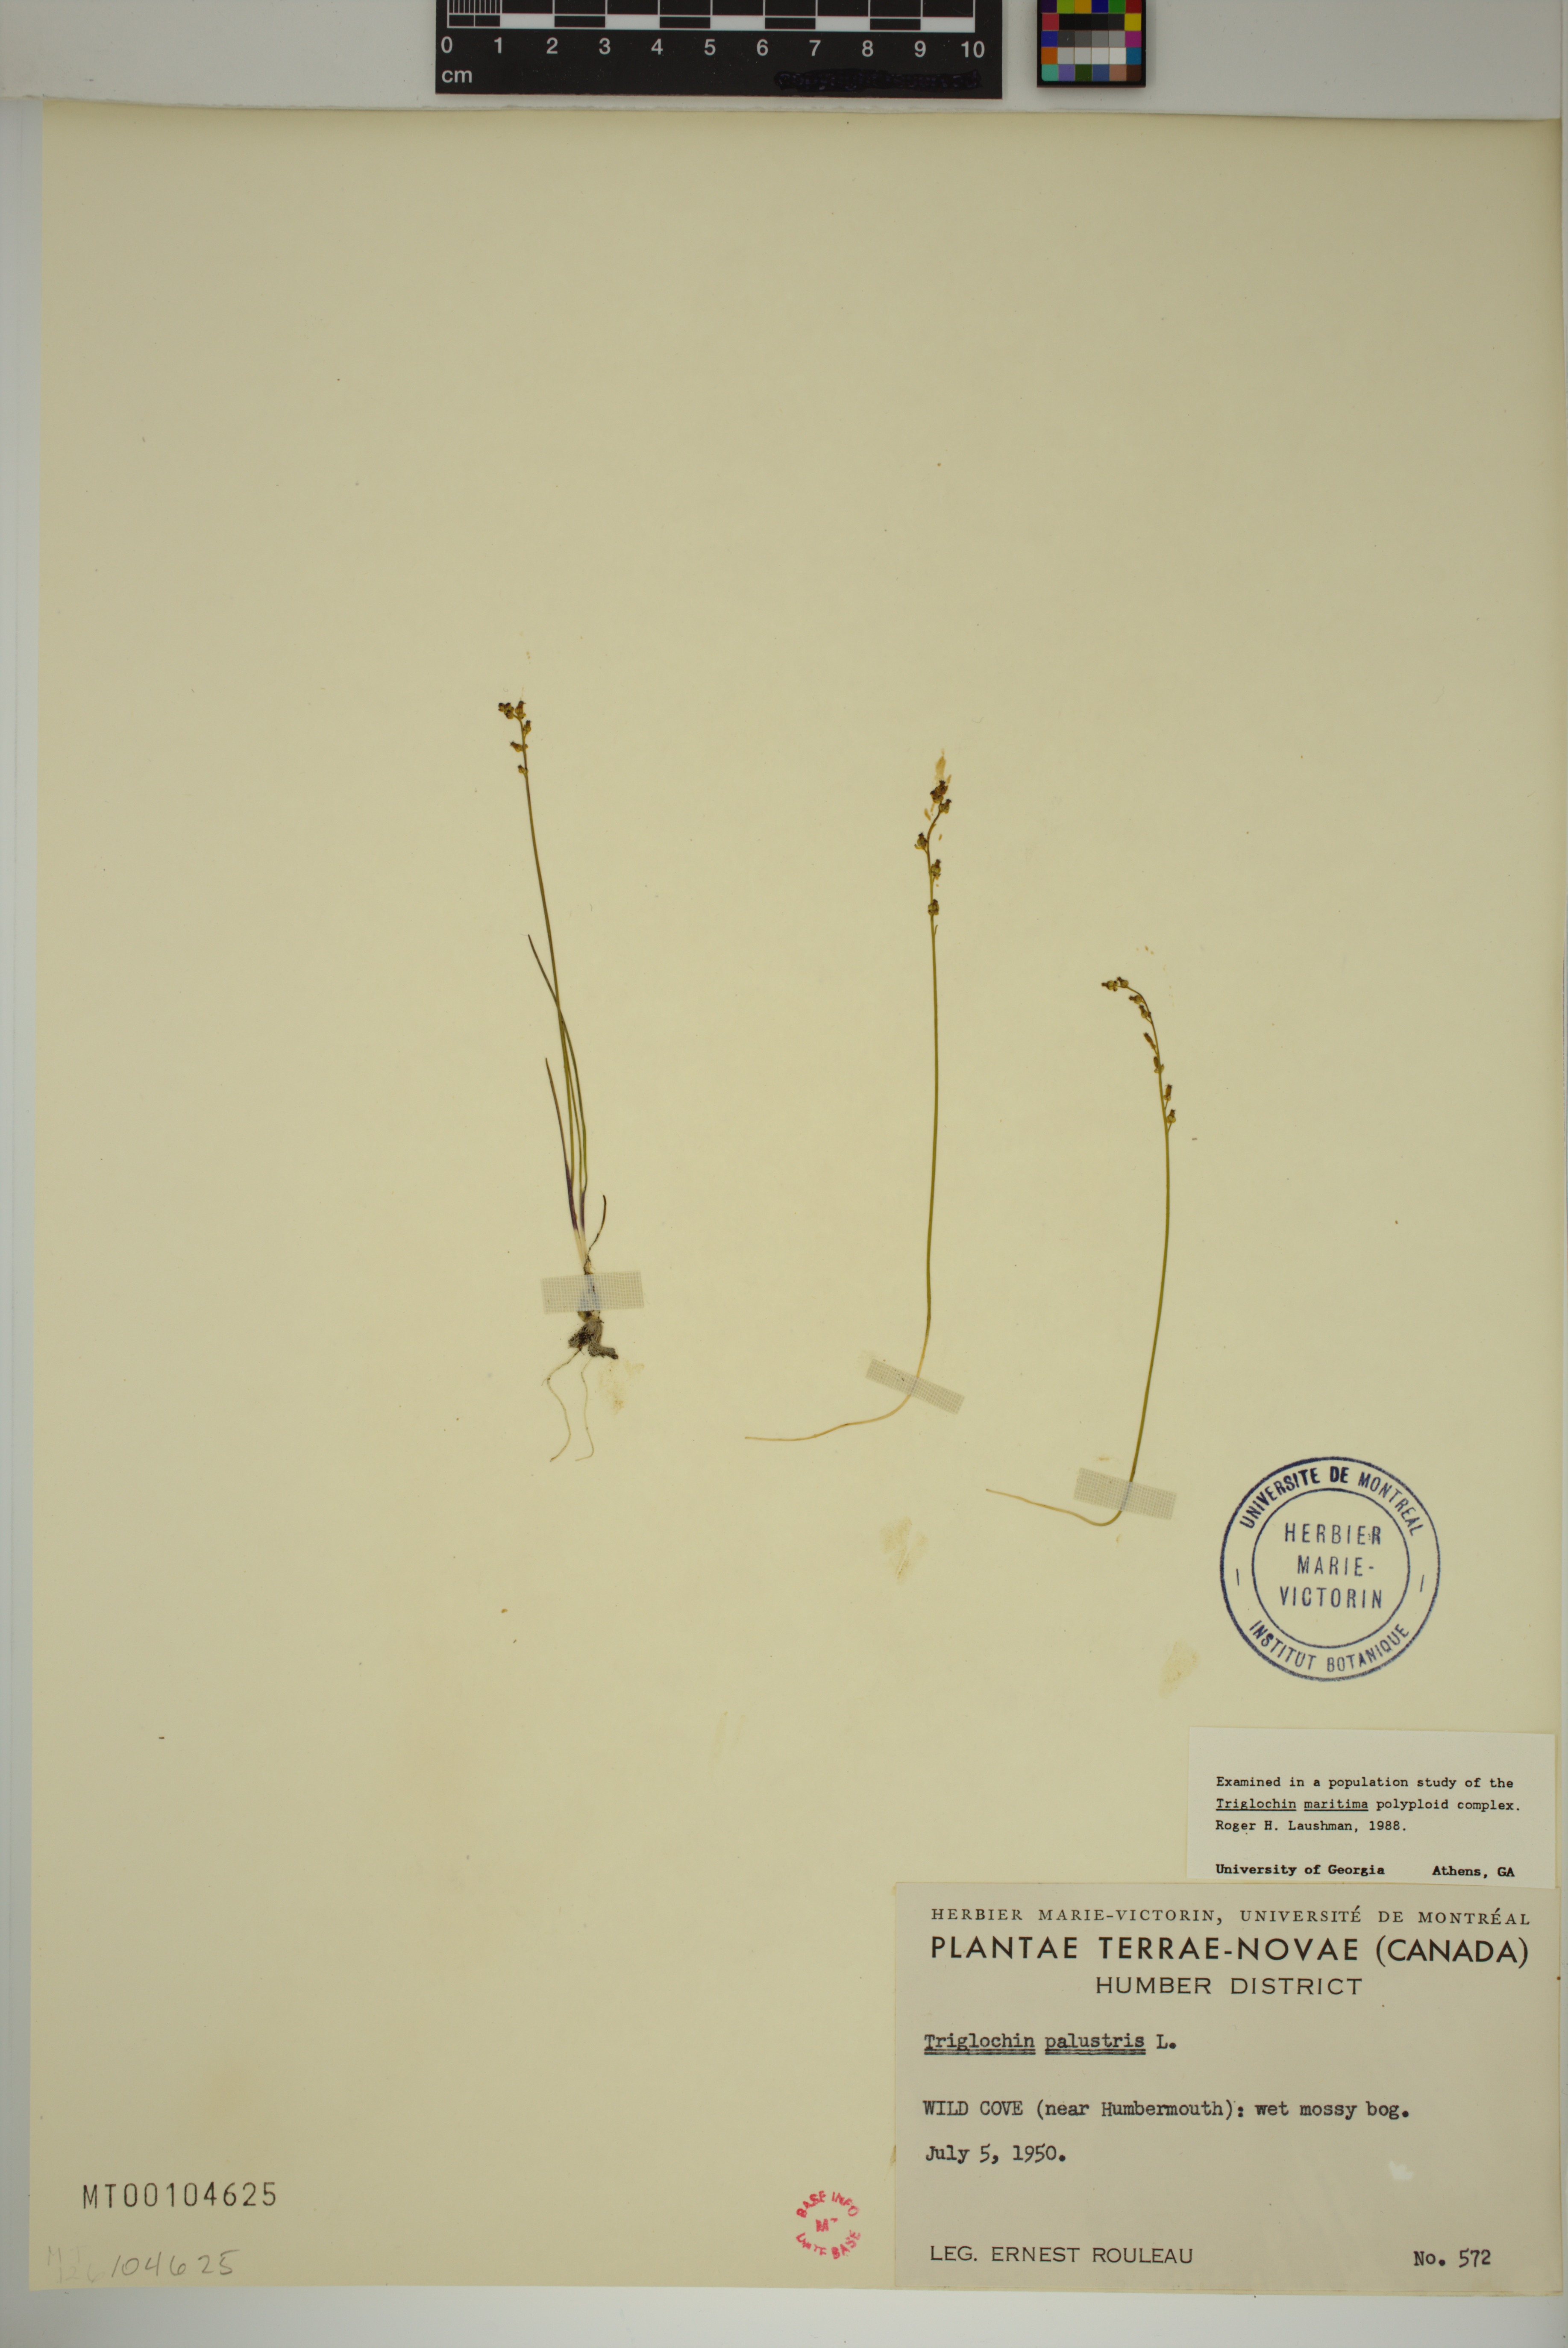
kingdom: Plantae
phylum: Tracheophyta
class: Liliopsida
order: Alismatales
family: Juncaginaceae
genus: Triglochin
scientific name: Triglochin palustris
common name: Marsh arrowgrass
